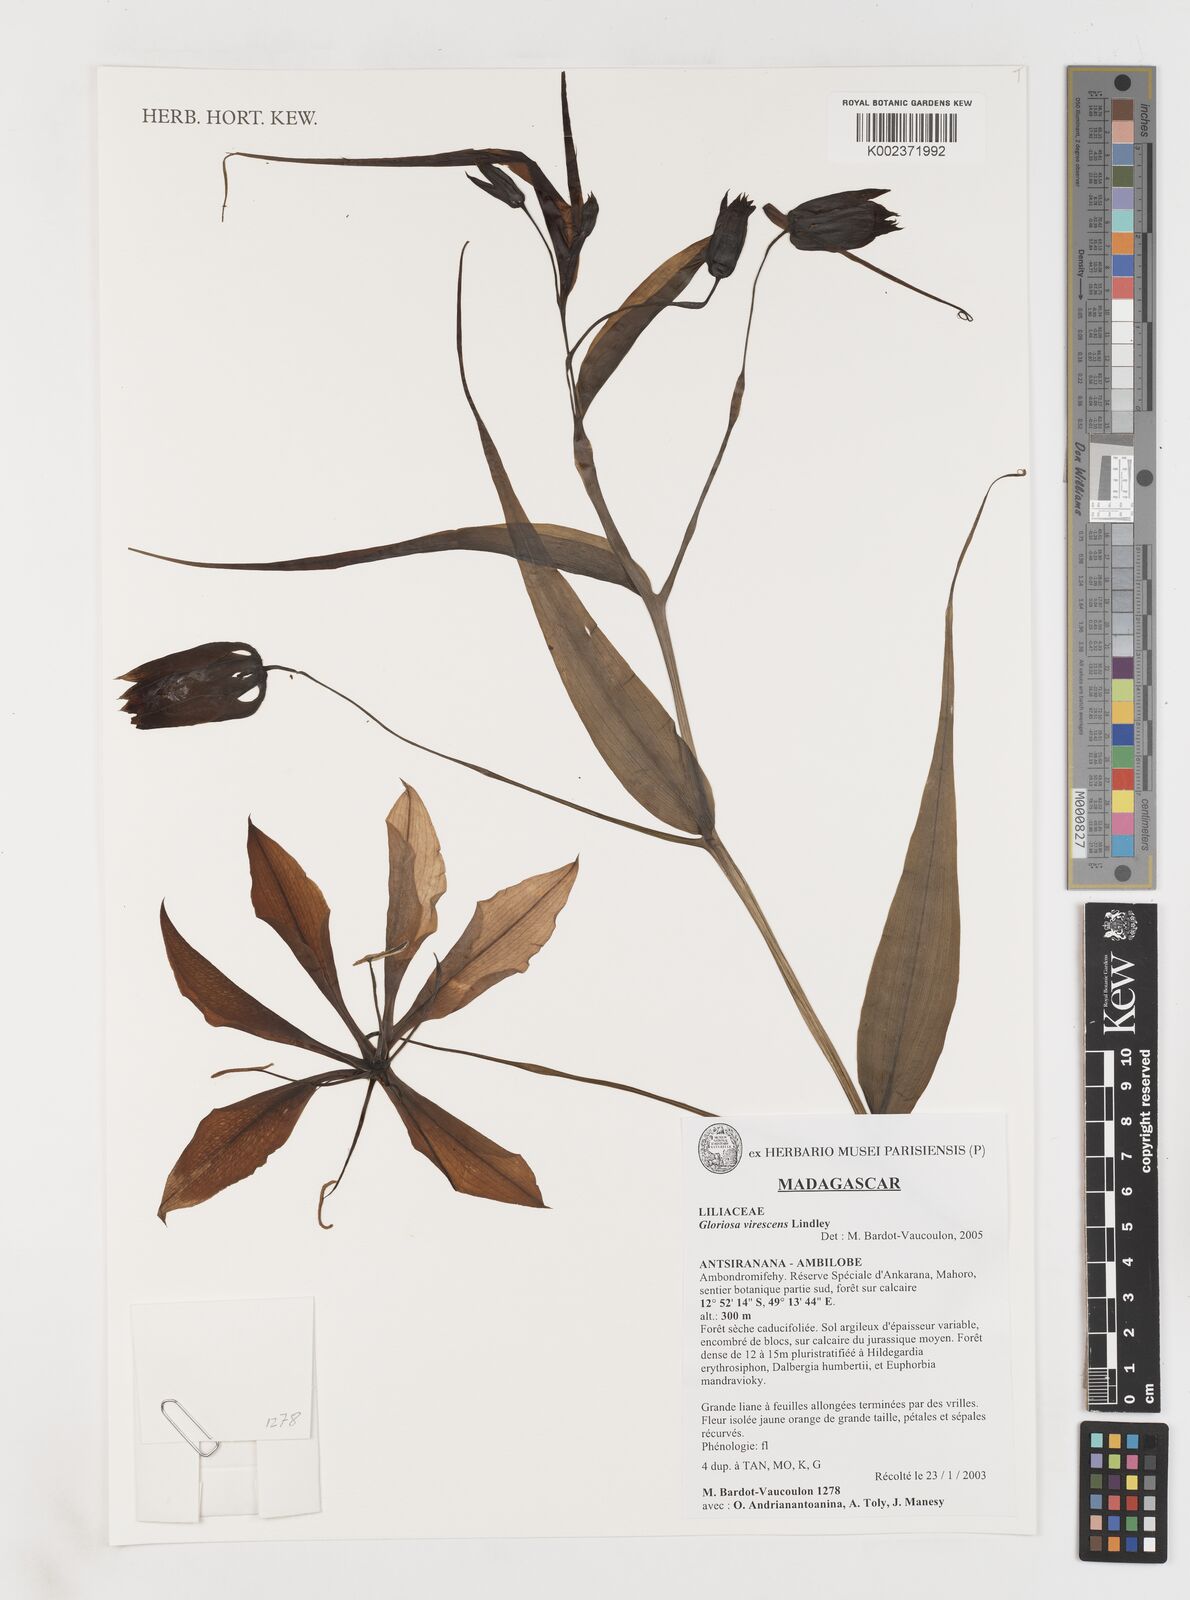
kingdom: Plantae
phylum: Tracheophyta
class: Liliopsida
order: Liliales
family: Colchicaceae
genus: Gloriosa
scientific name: Gloriosa simplex
